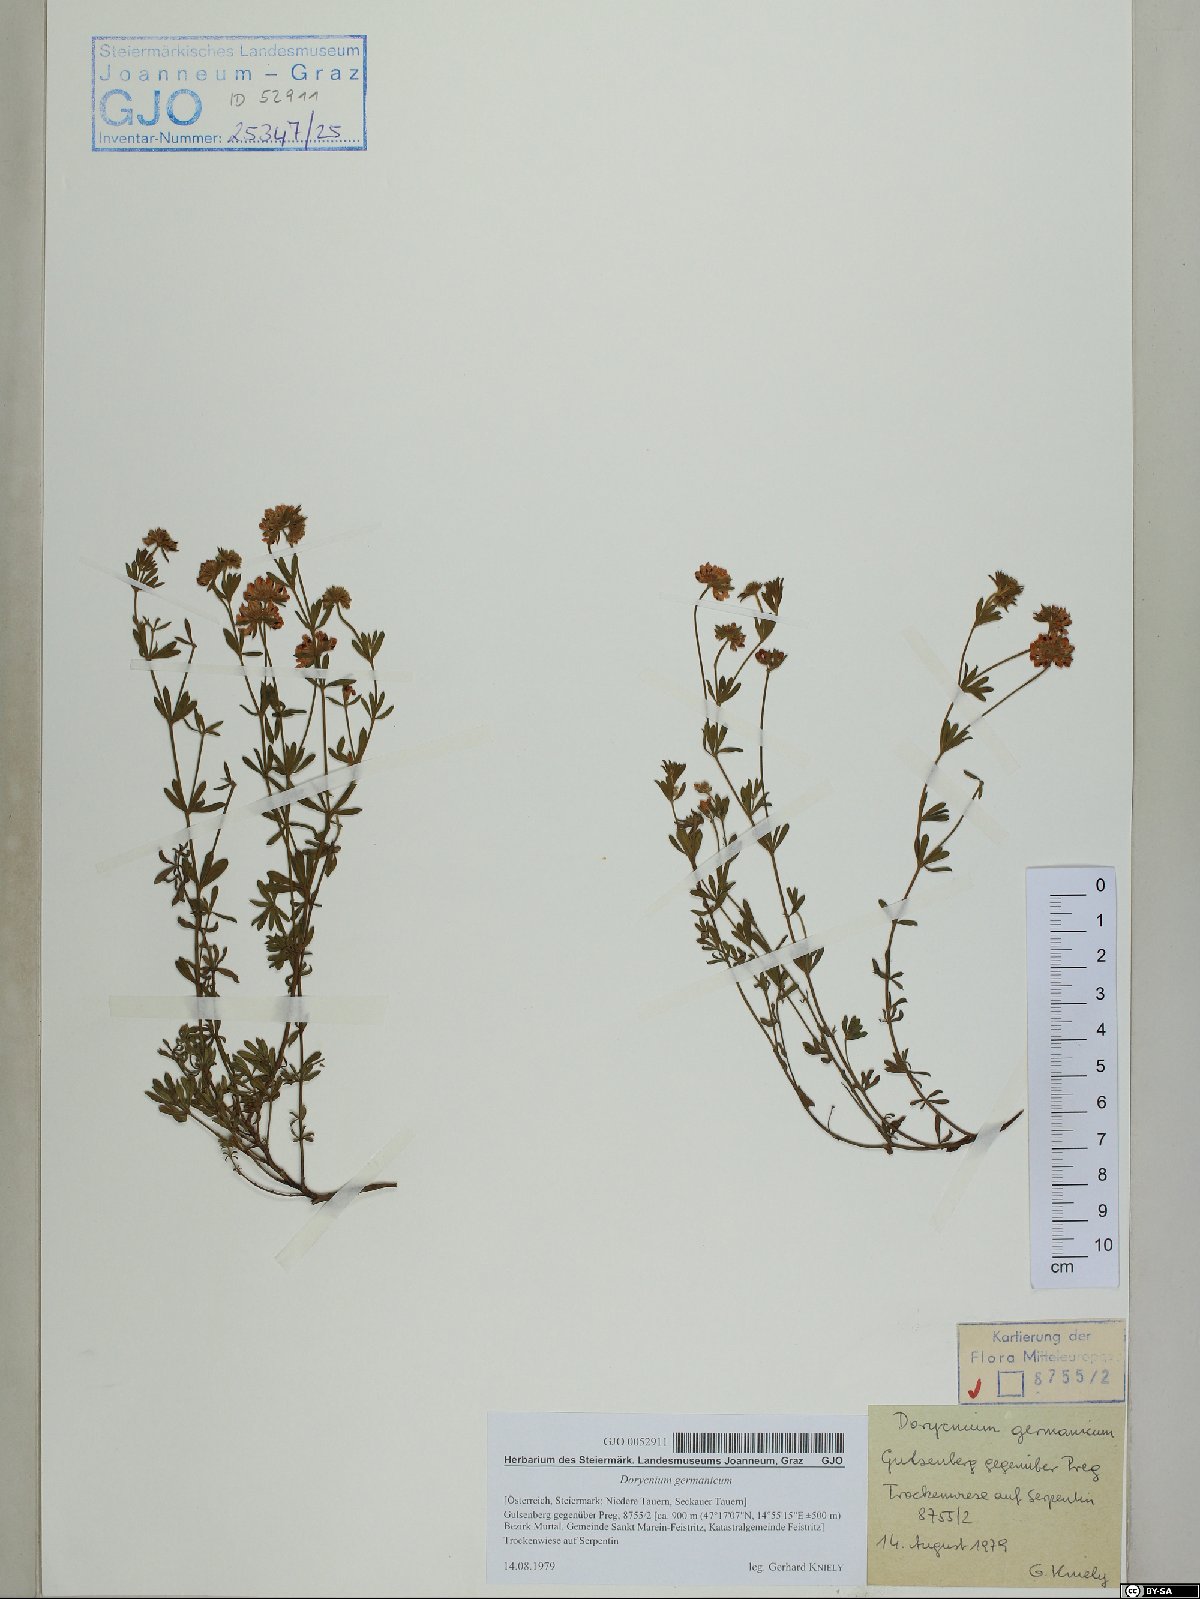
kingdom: Plantae
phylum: Tracheophyta
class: Magnoliopsida
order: Fabales
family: Fabaceae
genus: Lotus
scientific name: Lotus germanicus
